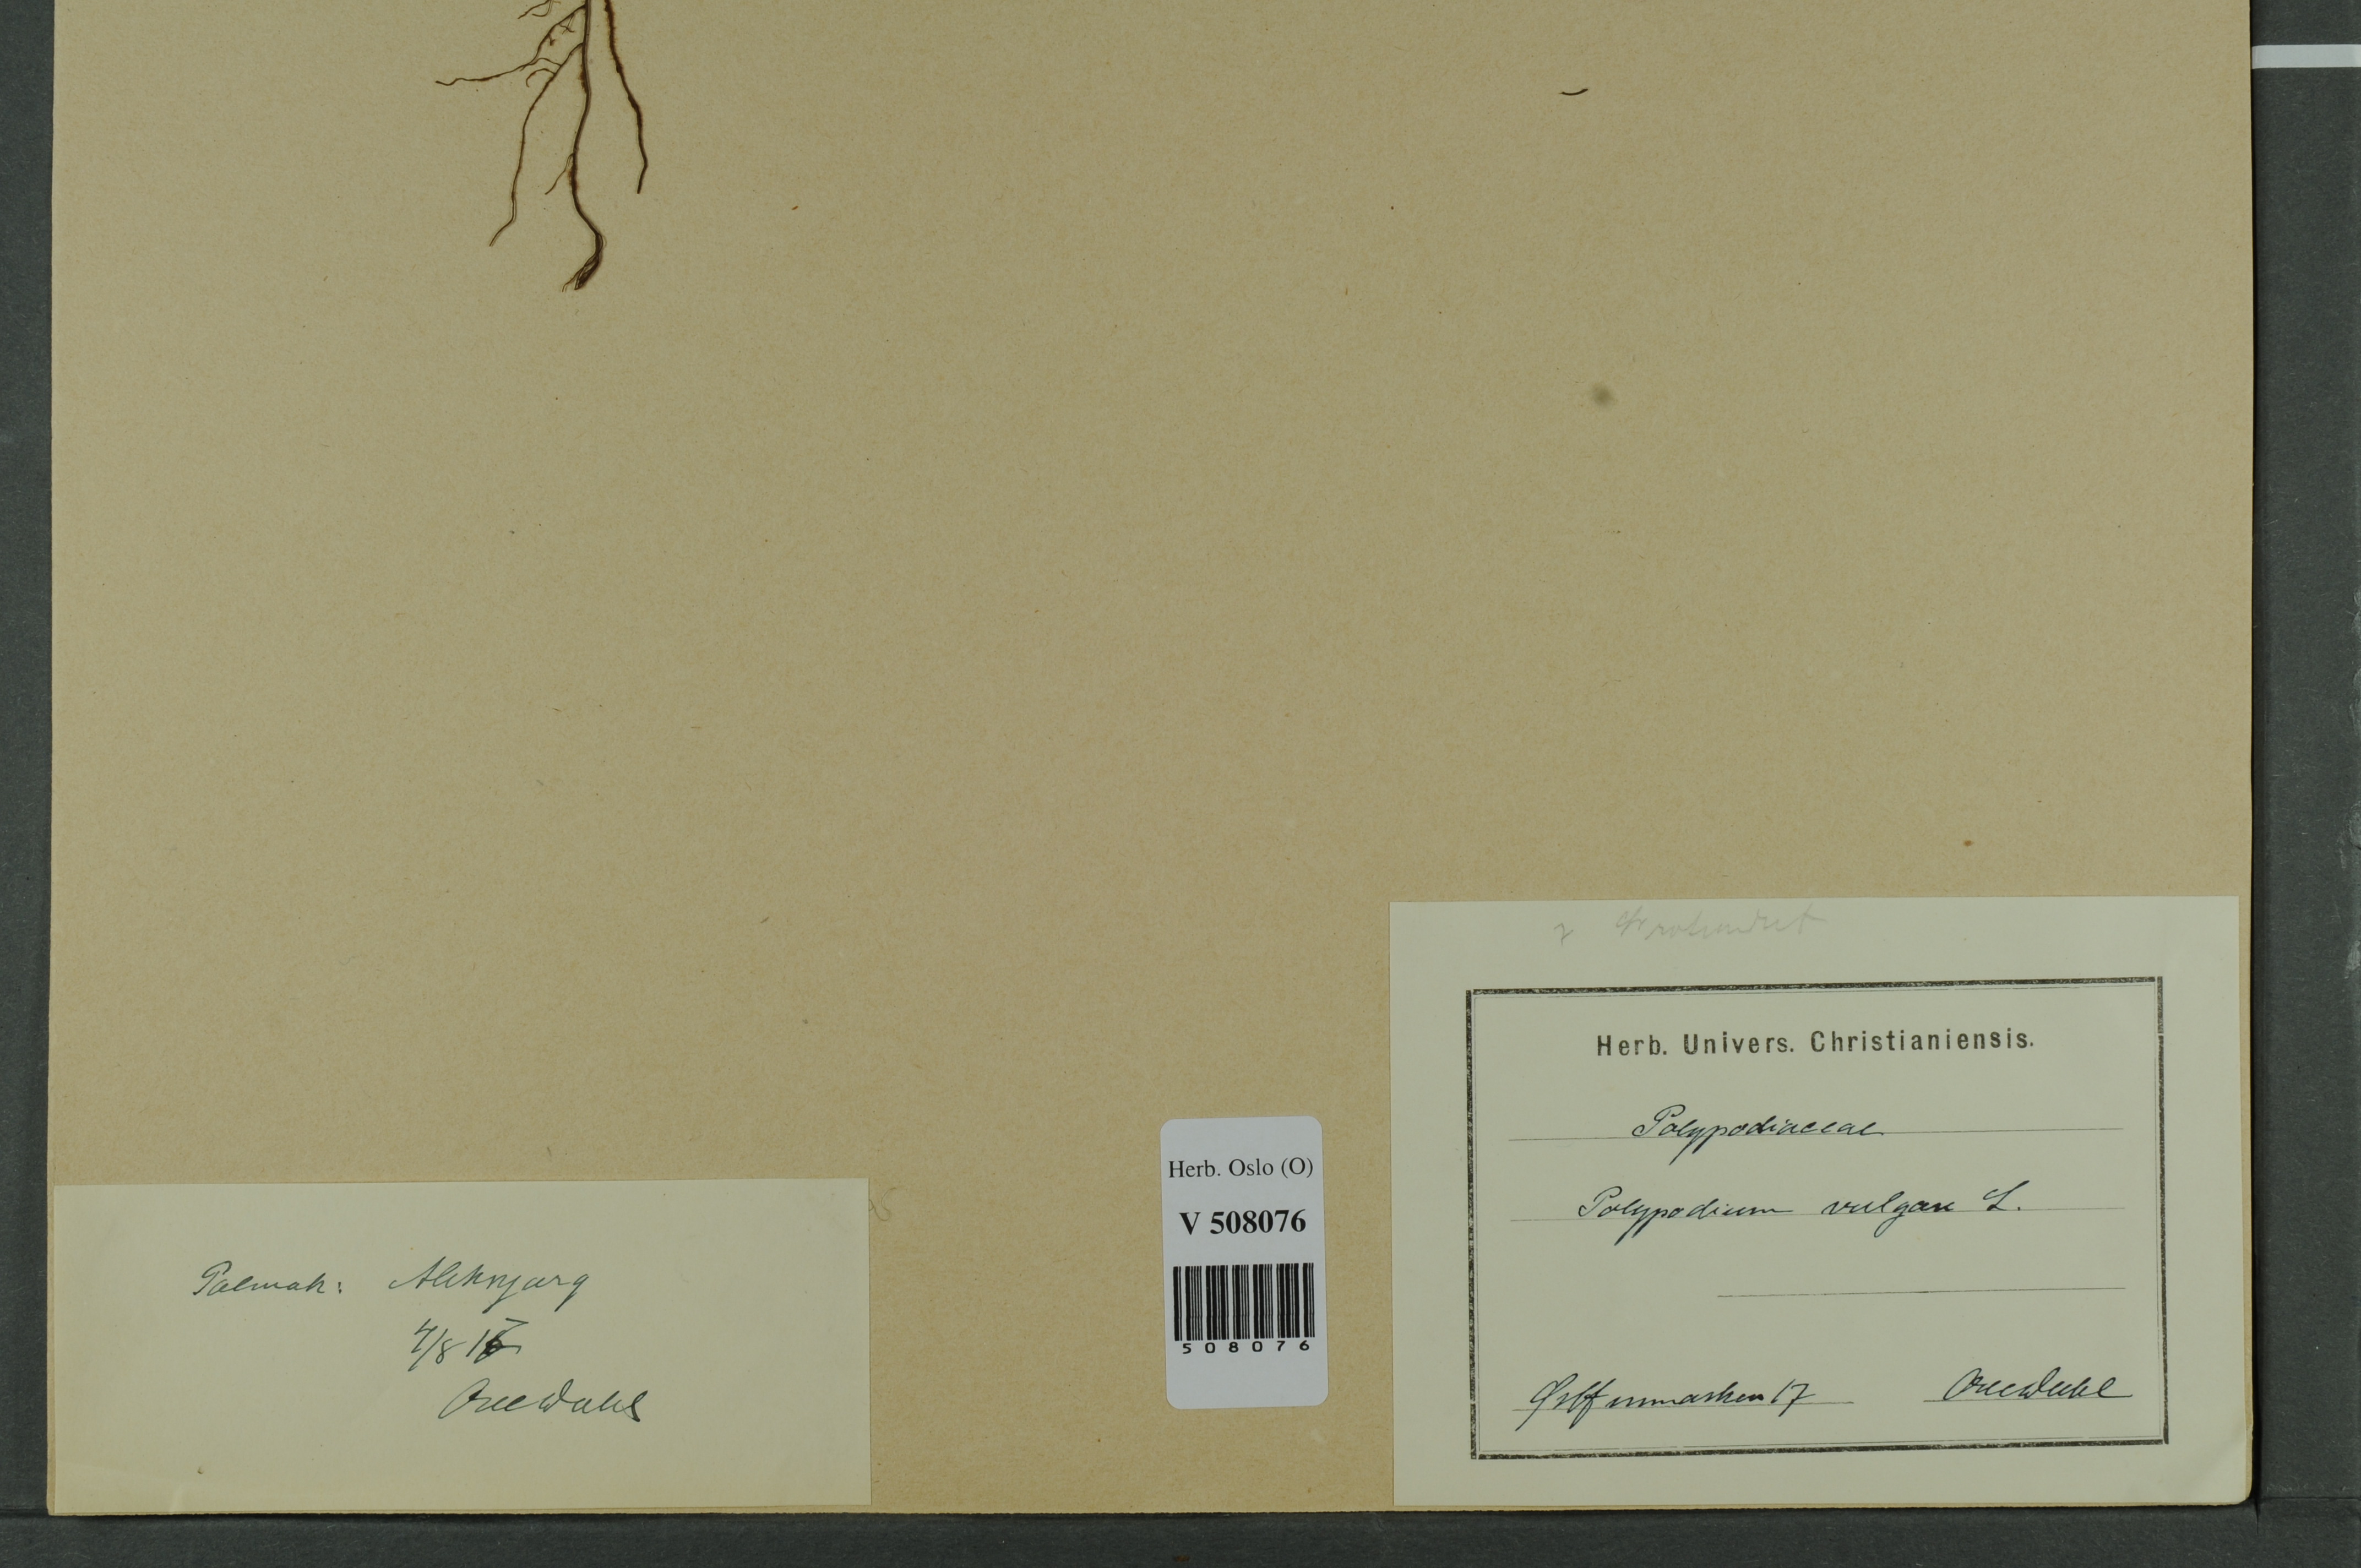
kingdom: Plantae
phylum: Tracheophyta
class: Polypodiopsida
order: Polypodiales
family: Polypodiaceae
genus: Polypodium
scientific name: Polypodium vulgare
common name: Common polypody
